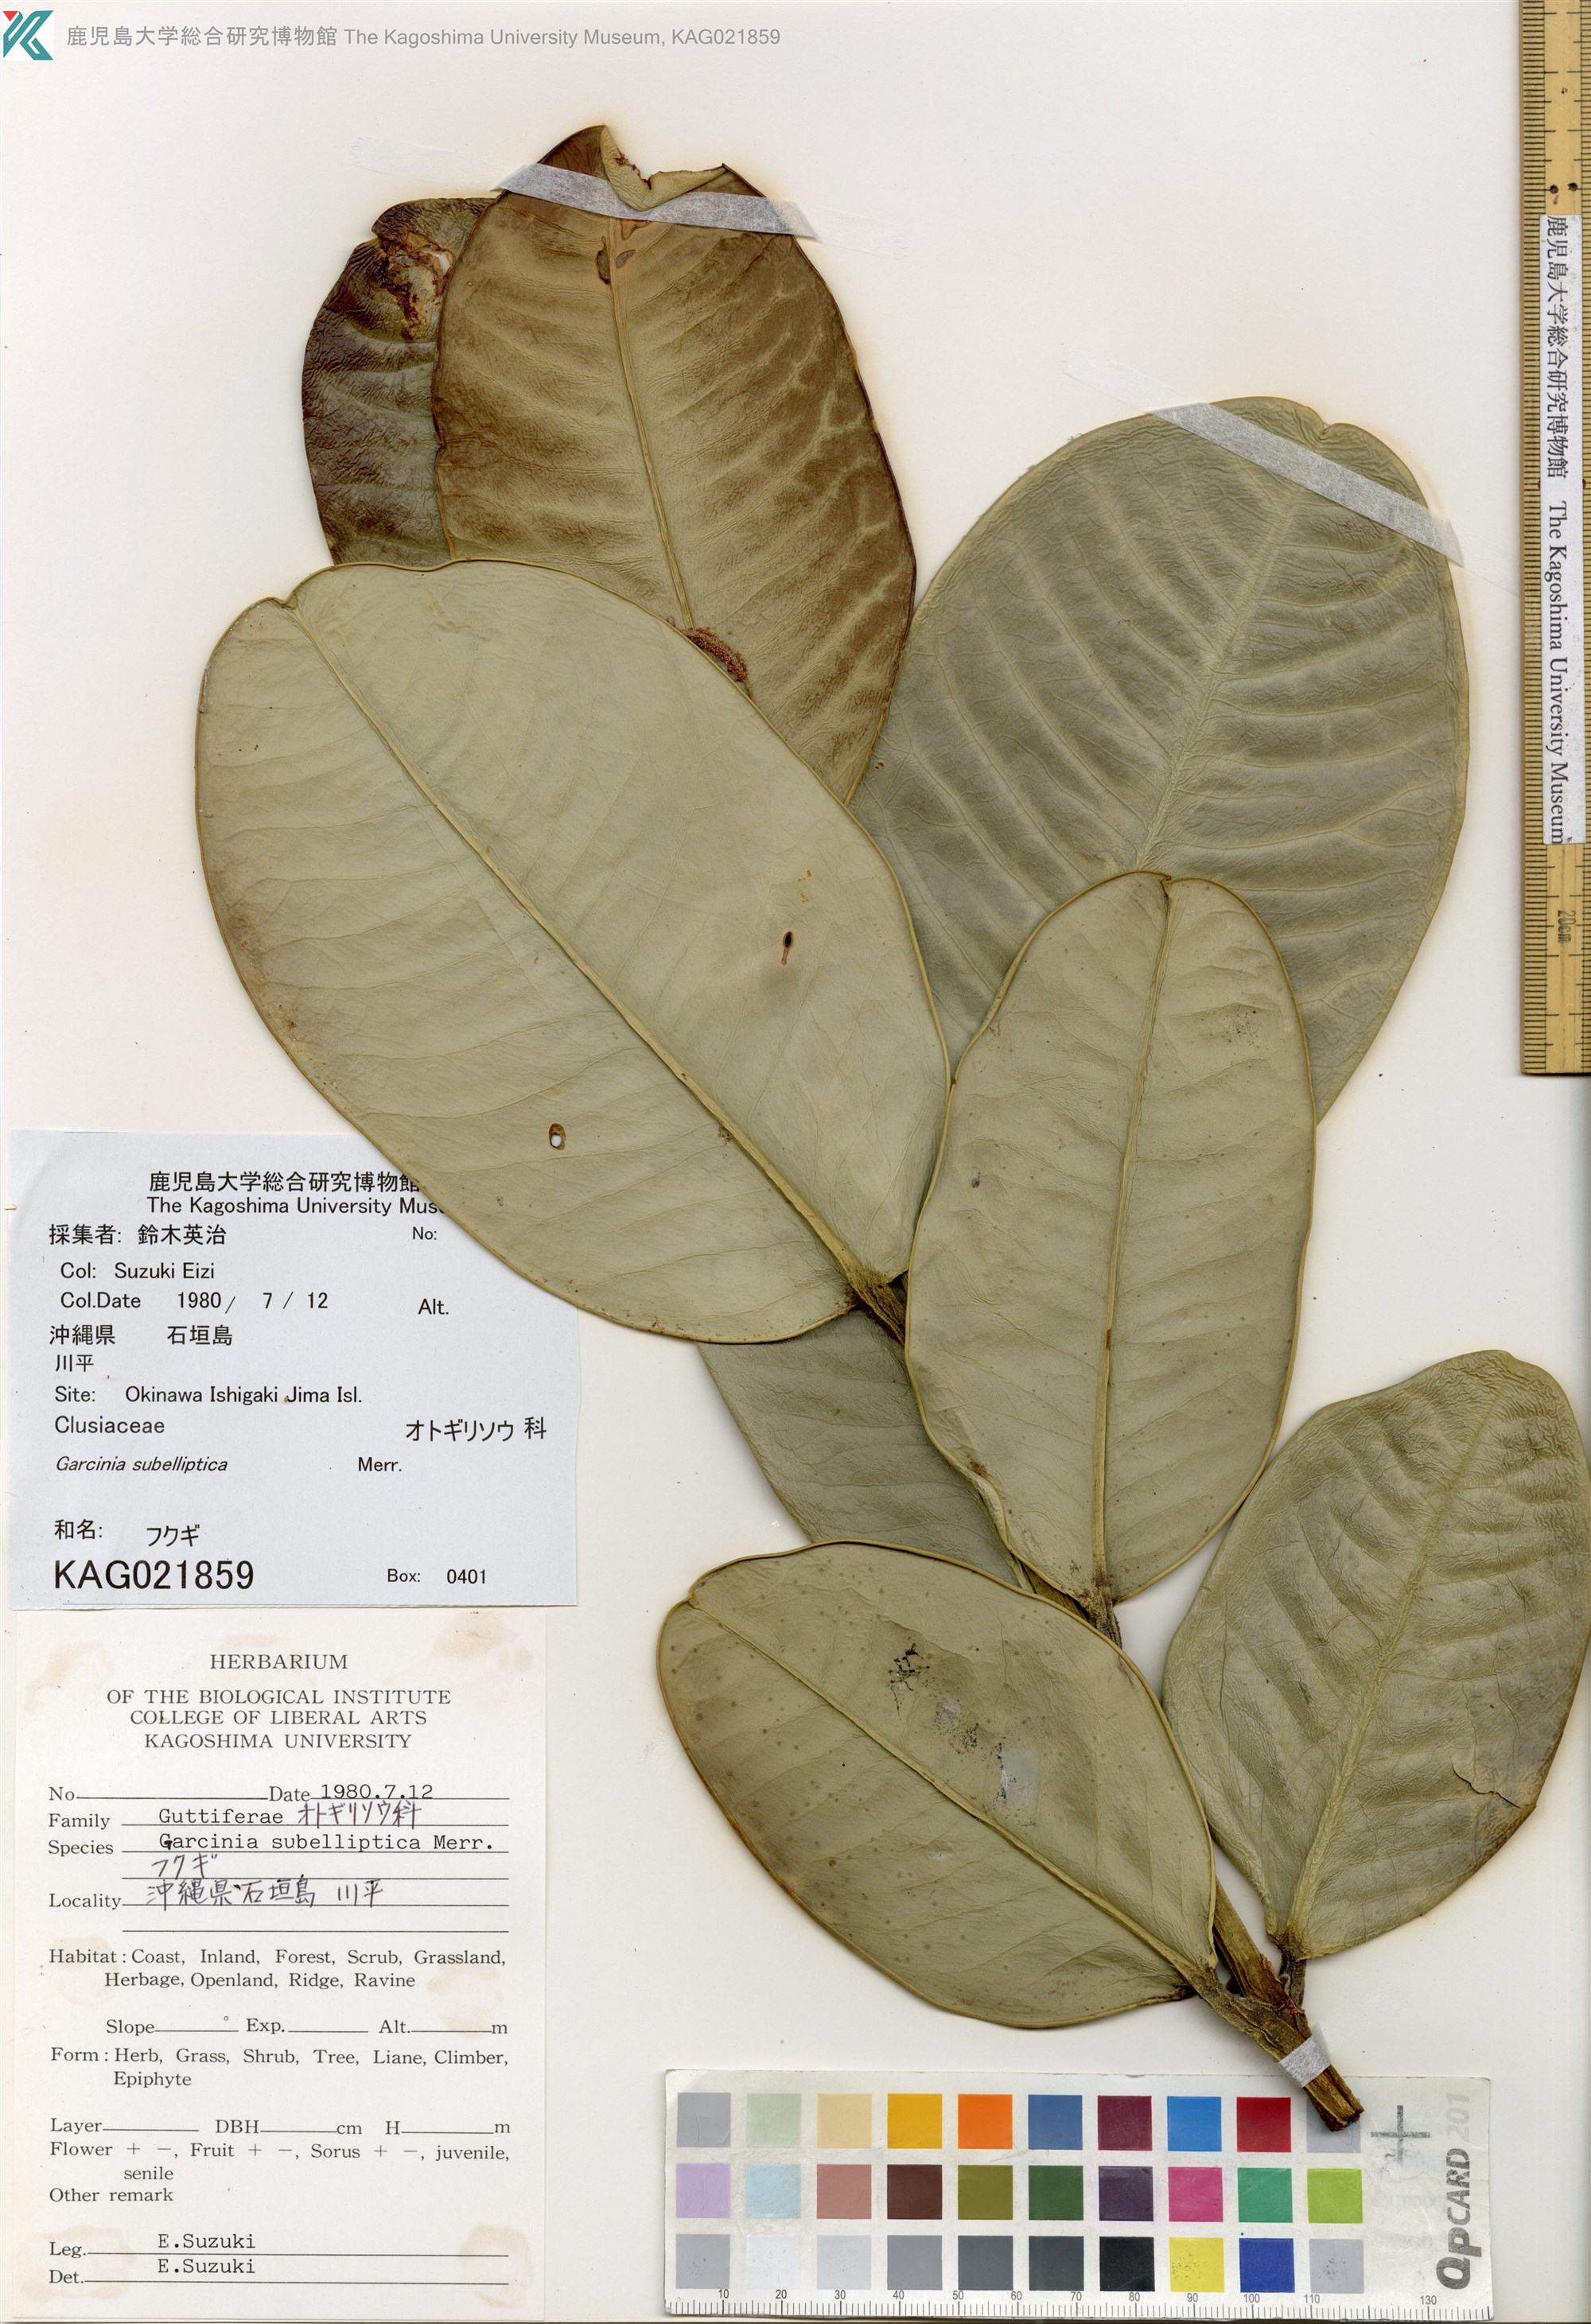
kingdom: Plantae
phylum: Tracheophyta
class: Magnoliopsida
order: Malpighiales
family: Clusiaceae
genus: Garcinia
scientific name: Garcinia subelliptica
